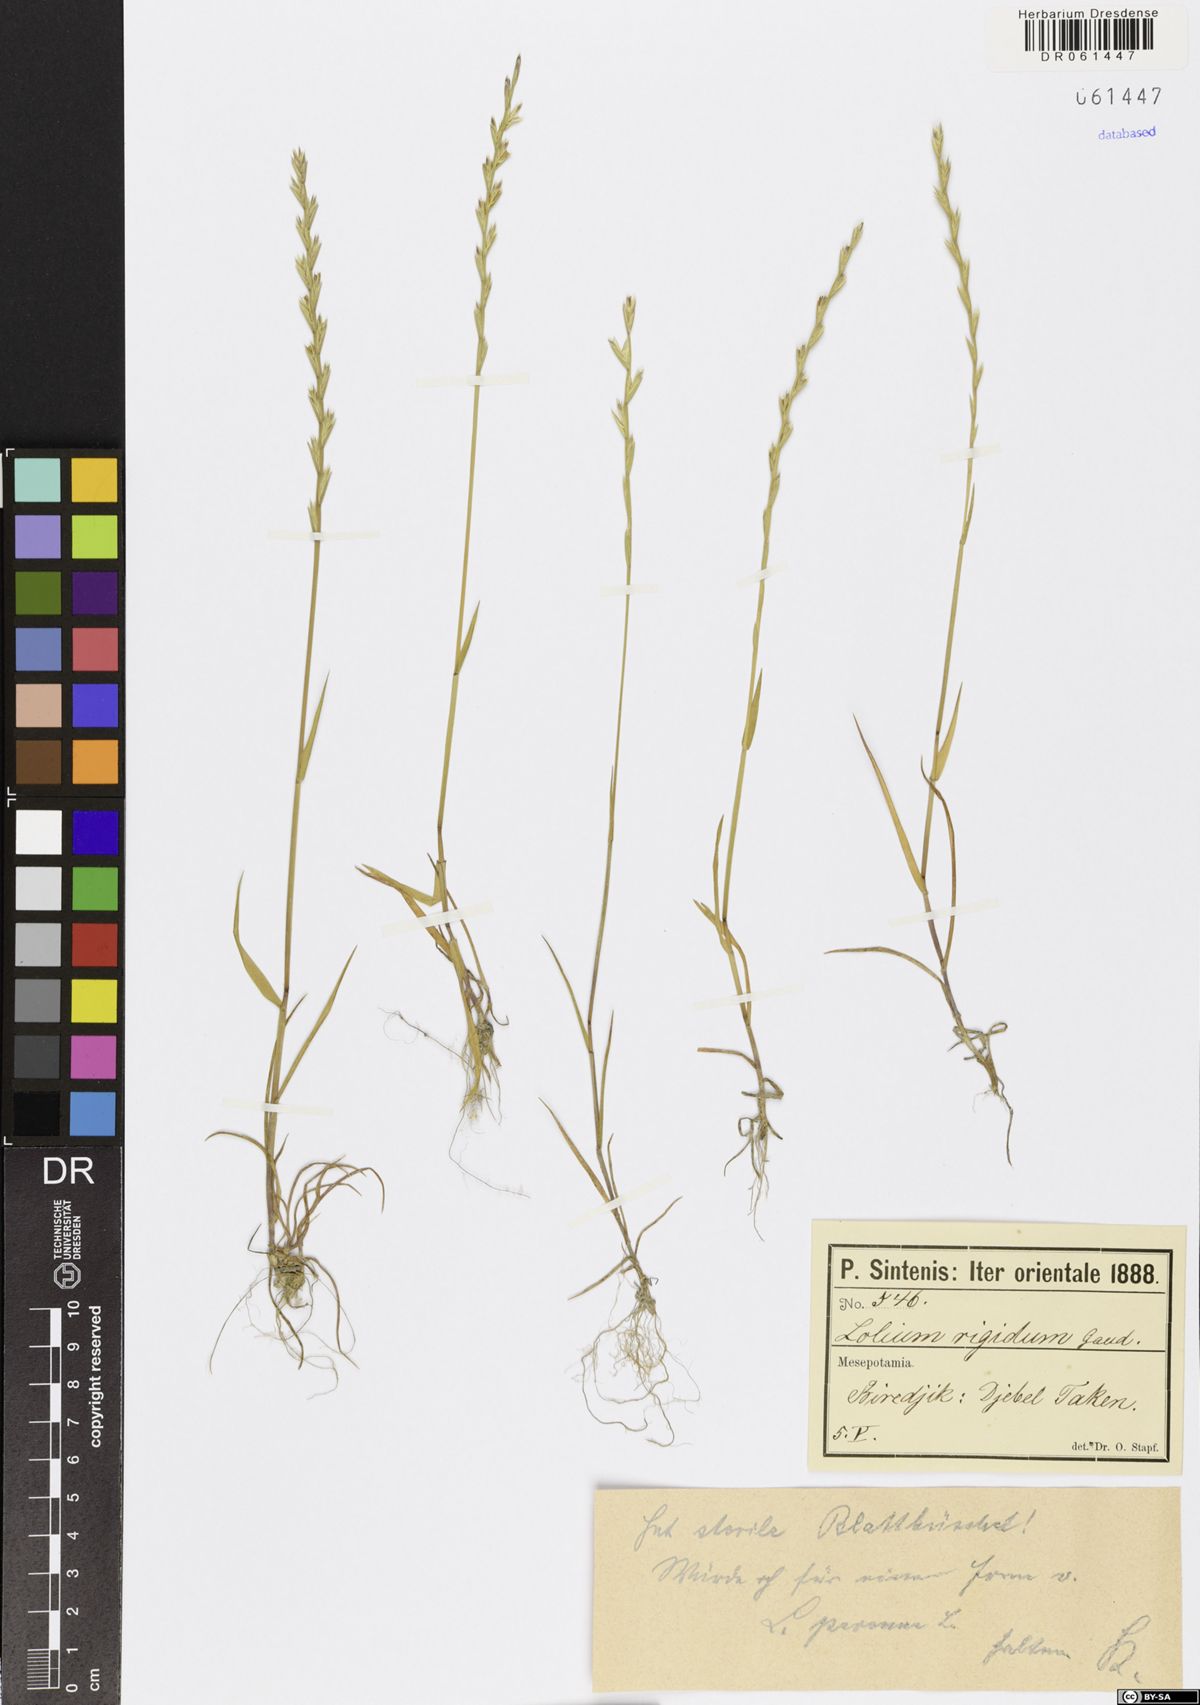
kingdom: Plantae
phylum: Tracheophyta
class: Liliopsida
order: Poales
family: Poaceae
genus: Lolium
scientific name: Lolium perenne
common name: Perennial ryegrass
